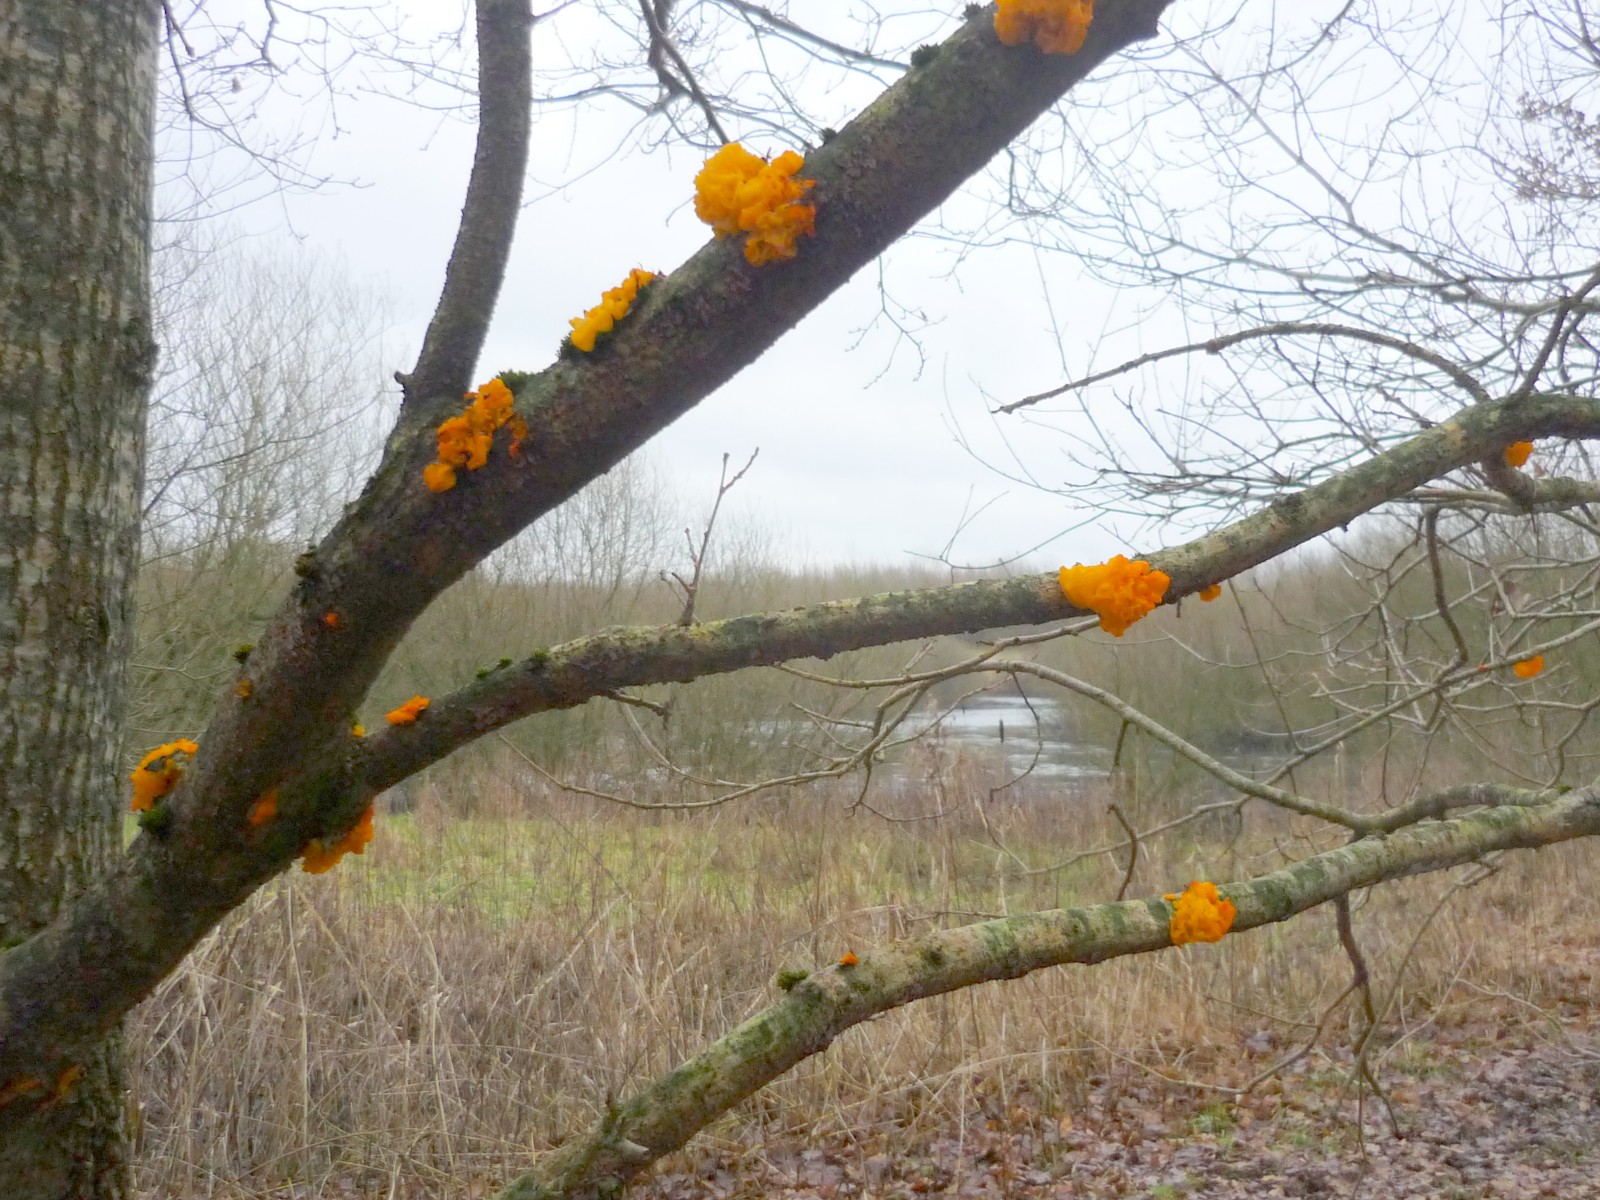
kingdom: Fungi
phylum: Basidiomycota
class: Tremellomycetes
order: Tremellales
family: Tremellaceae
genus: Tremella
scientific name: Tremella mesenterica
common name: gul bævresvamp
